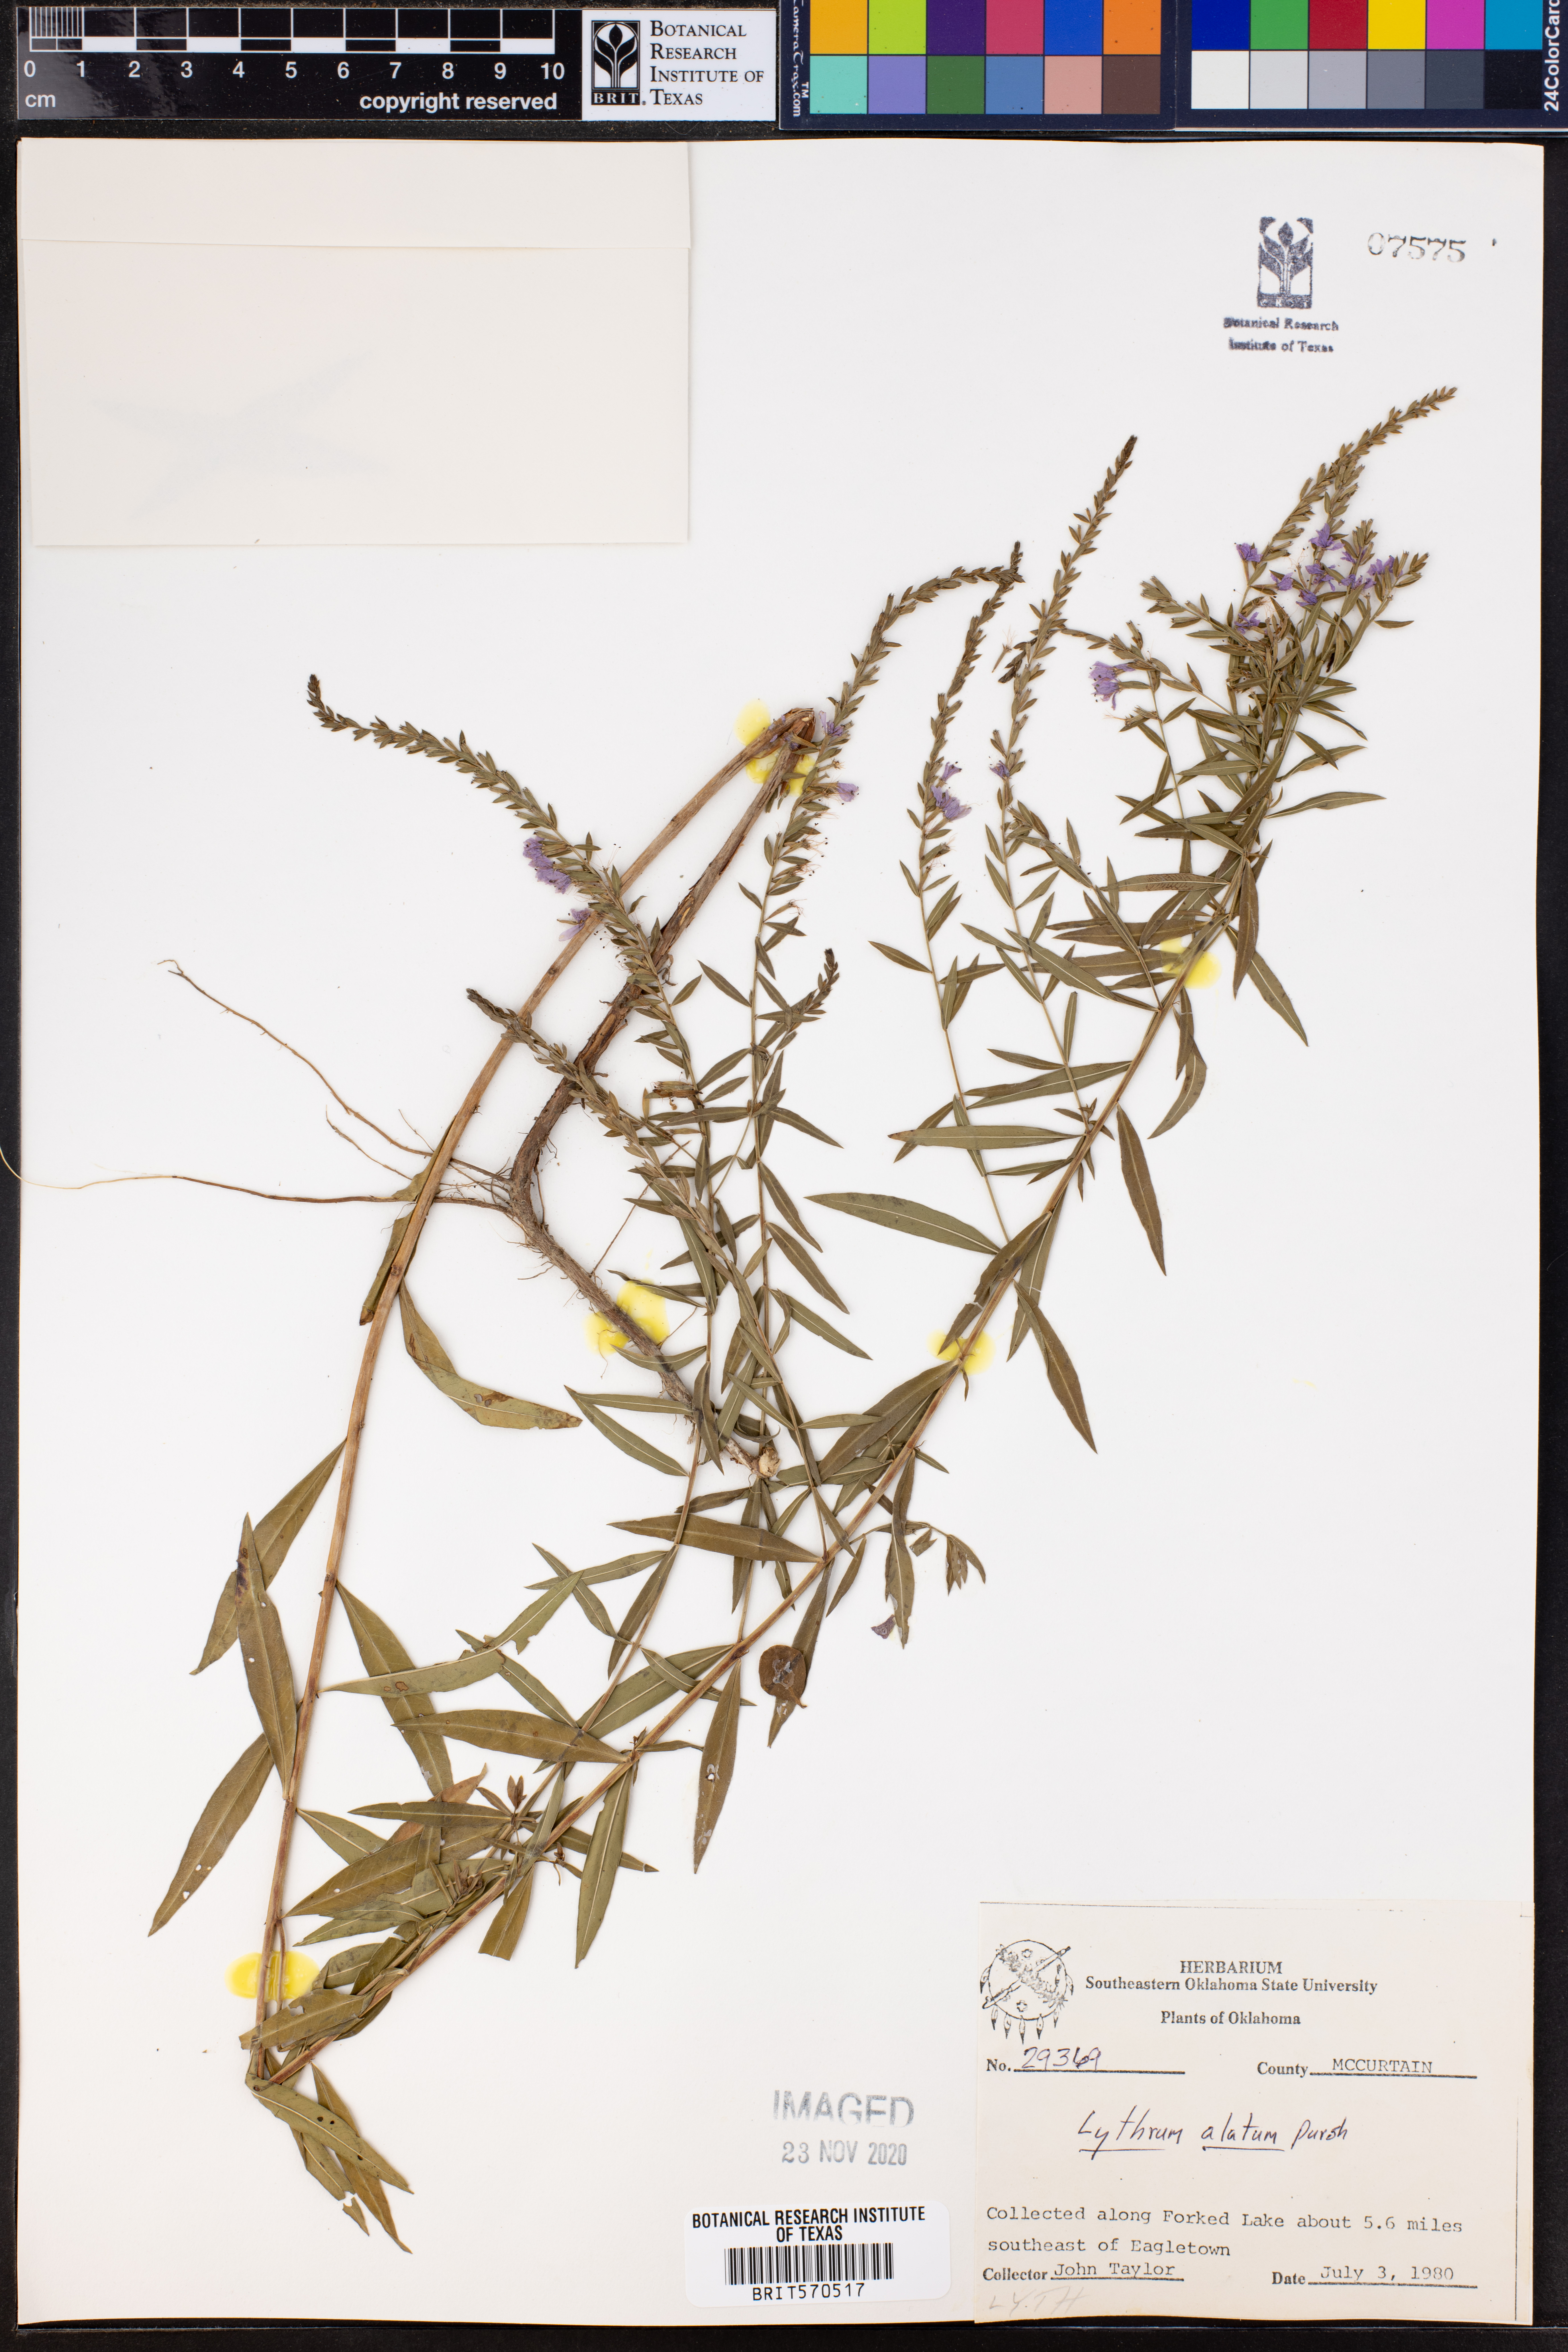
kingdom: Plantae
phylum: Tracheophyta
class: Magnoliopsida
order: Myrtales
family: Lythraceae
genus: Lythrum
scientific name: Lythrum alatum
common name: Winged loosestrife
